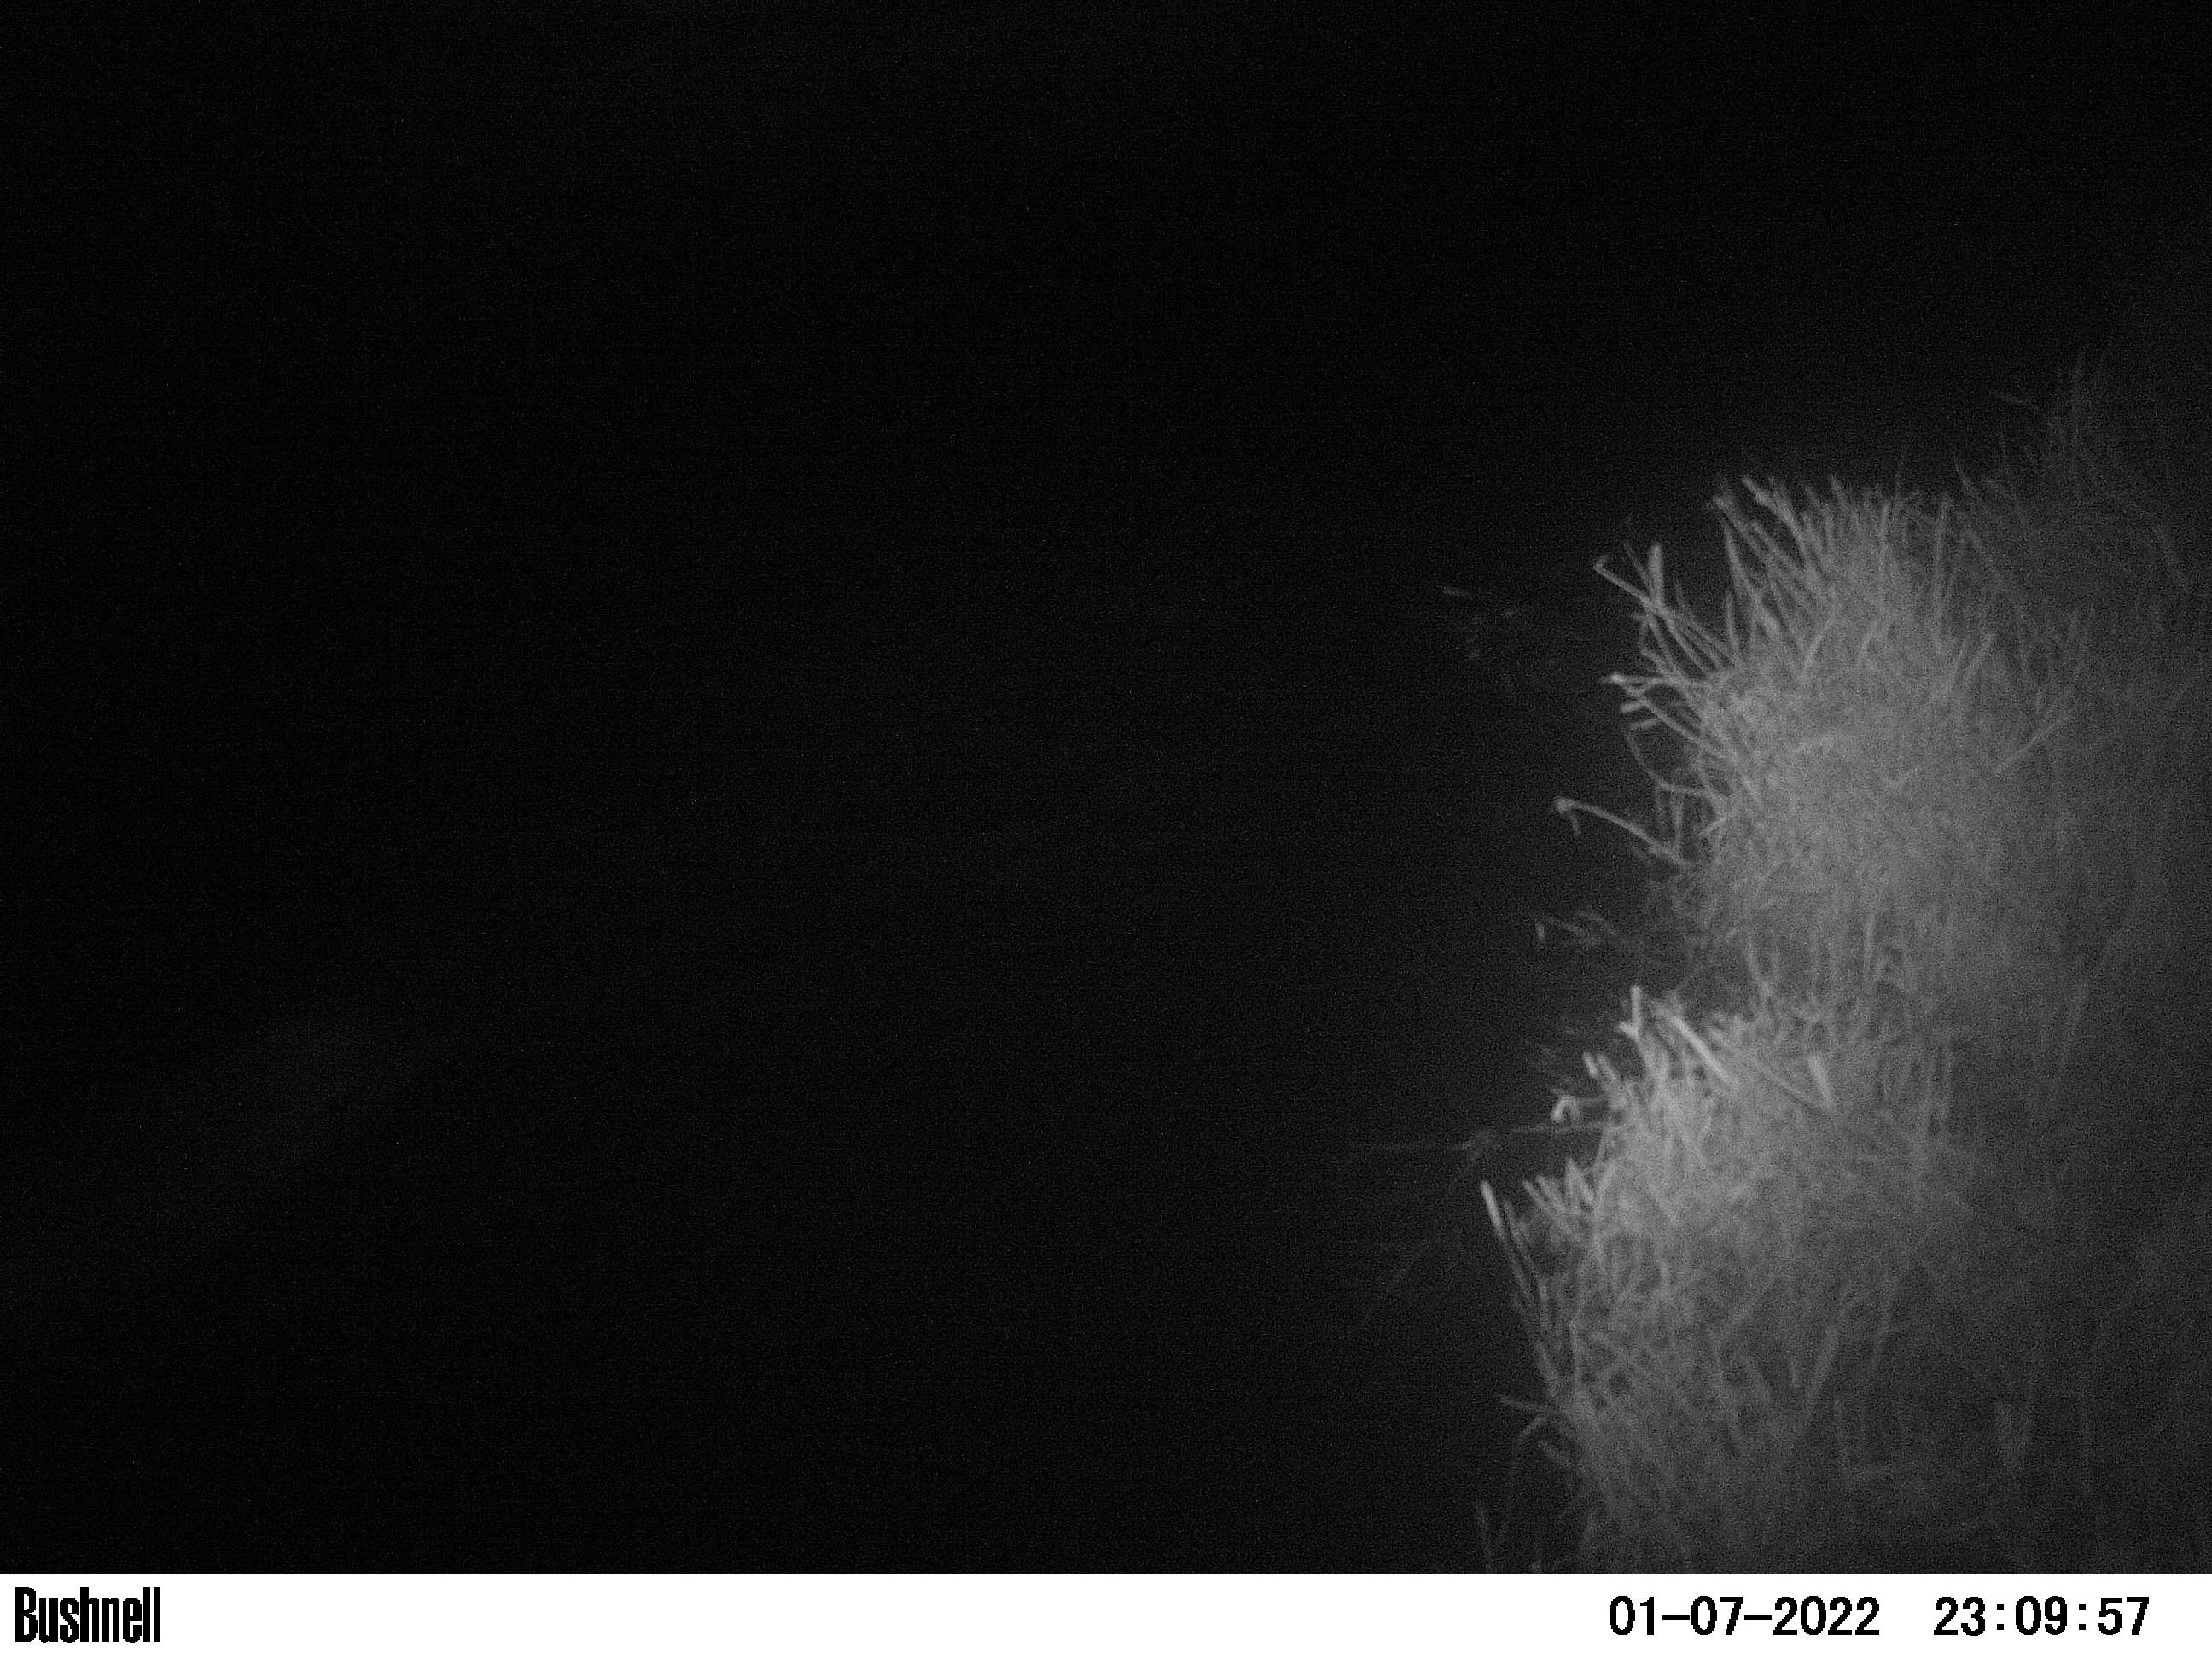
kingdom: Animalia
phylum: Chordata
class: Mammalia
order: Rodentia
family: Myocastoridae
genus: Myocastor
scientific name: Myocastor coypus
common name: Coypu
